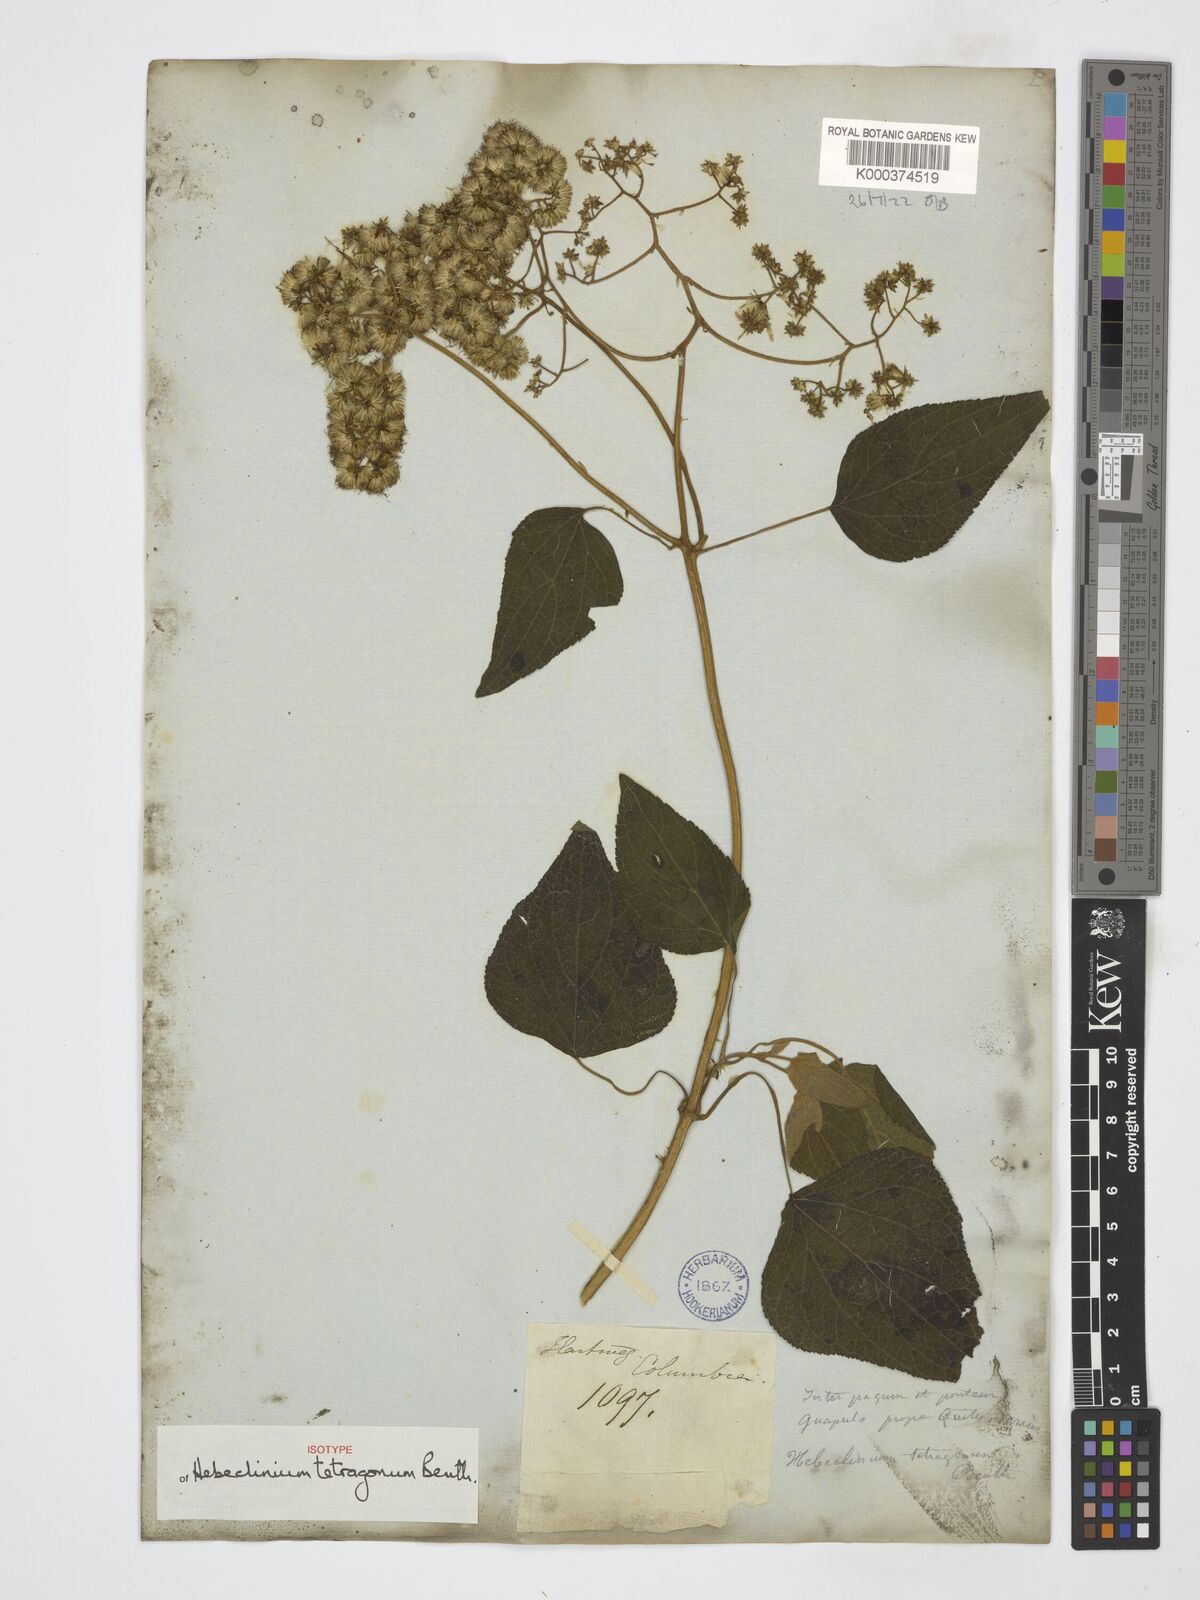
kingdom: Plantae
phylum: Tracheophyta
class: Magnoliopsida
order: Asterales
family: Asteraceae
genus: Hebeclinium
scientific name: Hebeclinium tetragonum
